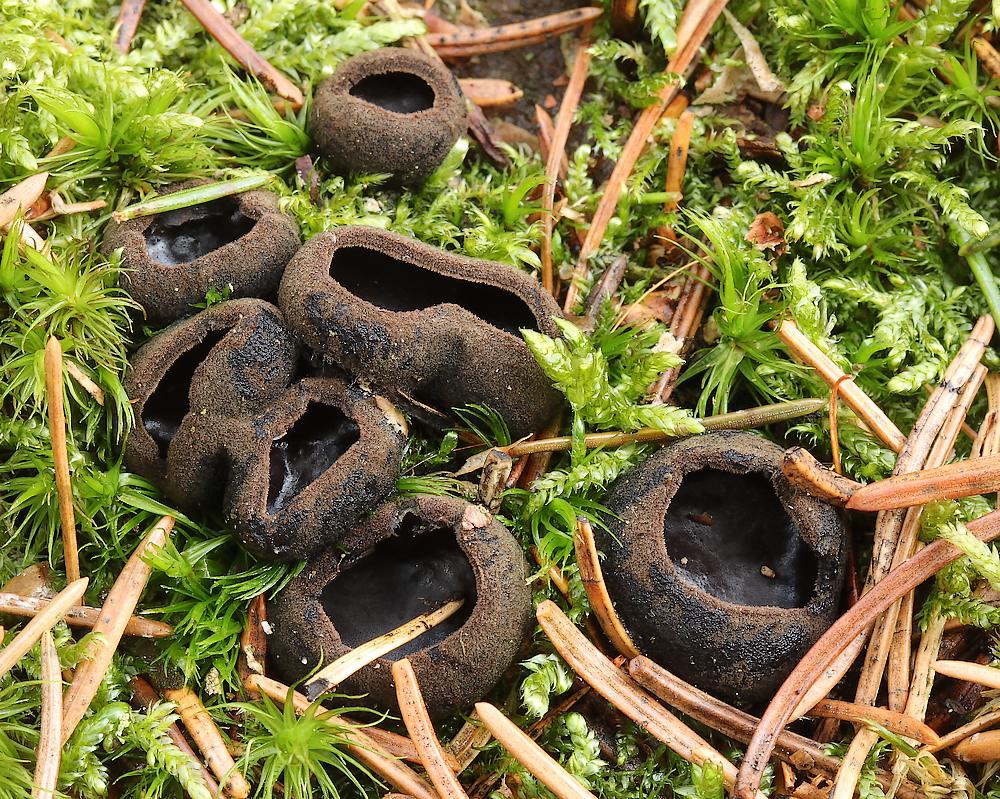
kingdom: Fungi
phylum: Ascomycota
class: Pezizomycetes
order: Pezizales
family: Sarcosomataceae
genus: Pseudoplectania
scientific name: Pseudoplectania nigrella
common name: almindelig sortbæger
